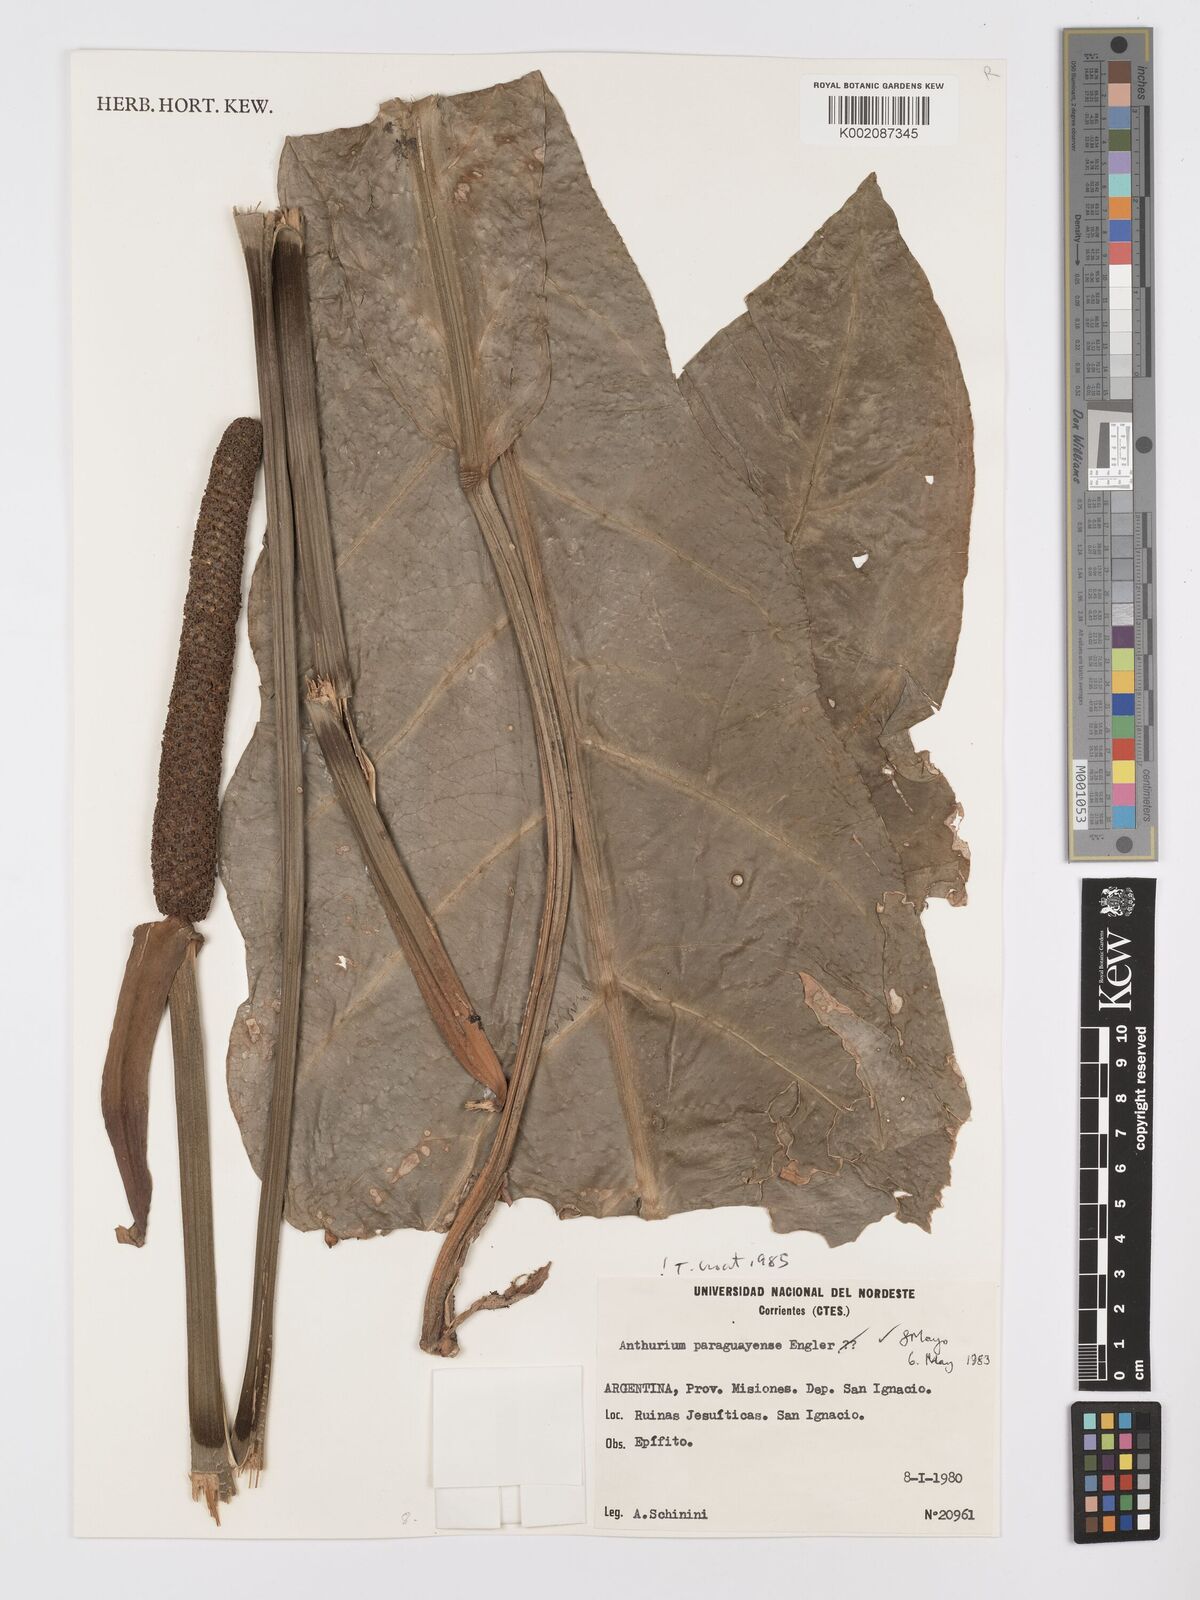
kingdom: Plantae
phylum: Tracheophyta
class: Liliopsida
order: Alismatales
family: Araceae
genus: Anthurium
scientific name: Anthurium paraguayense
